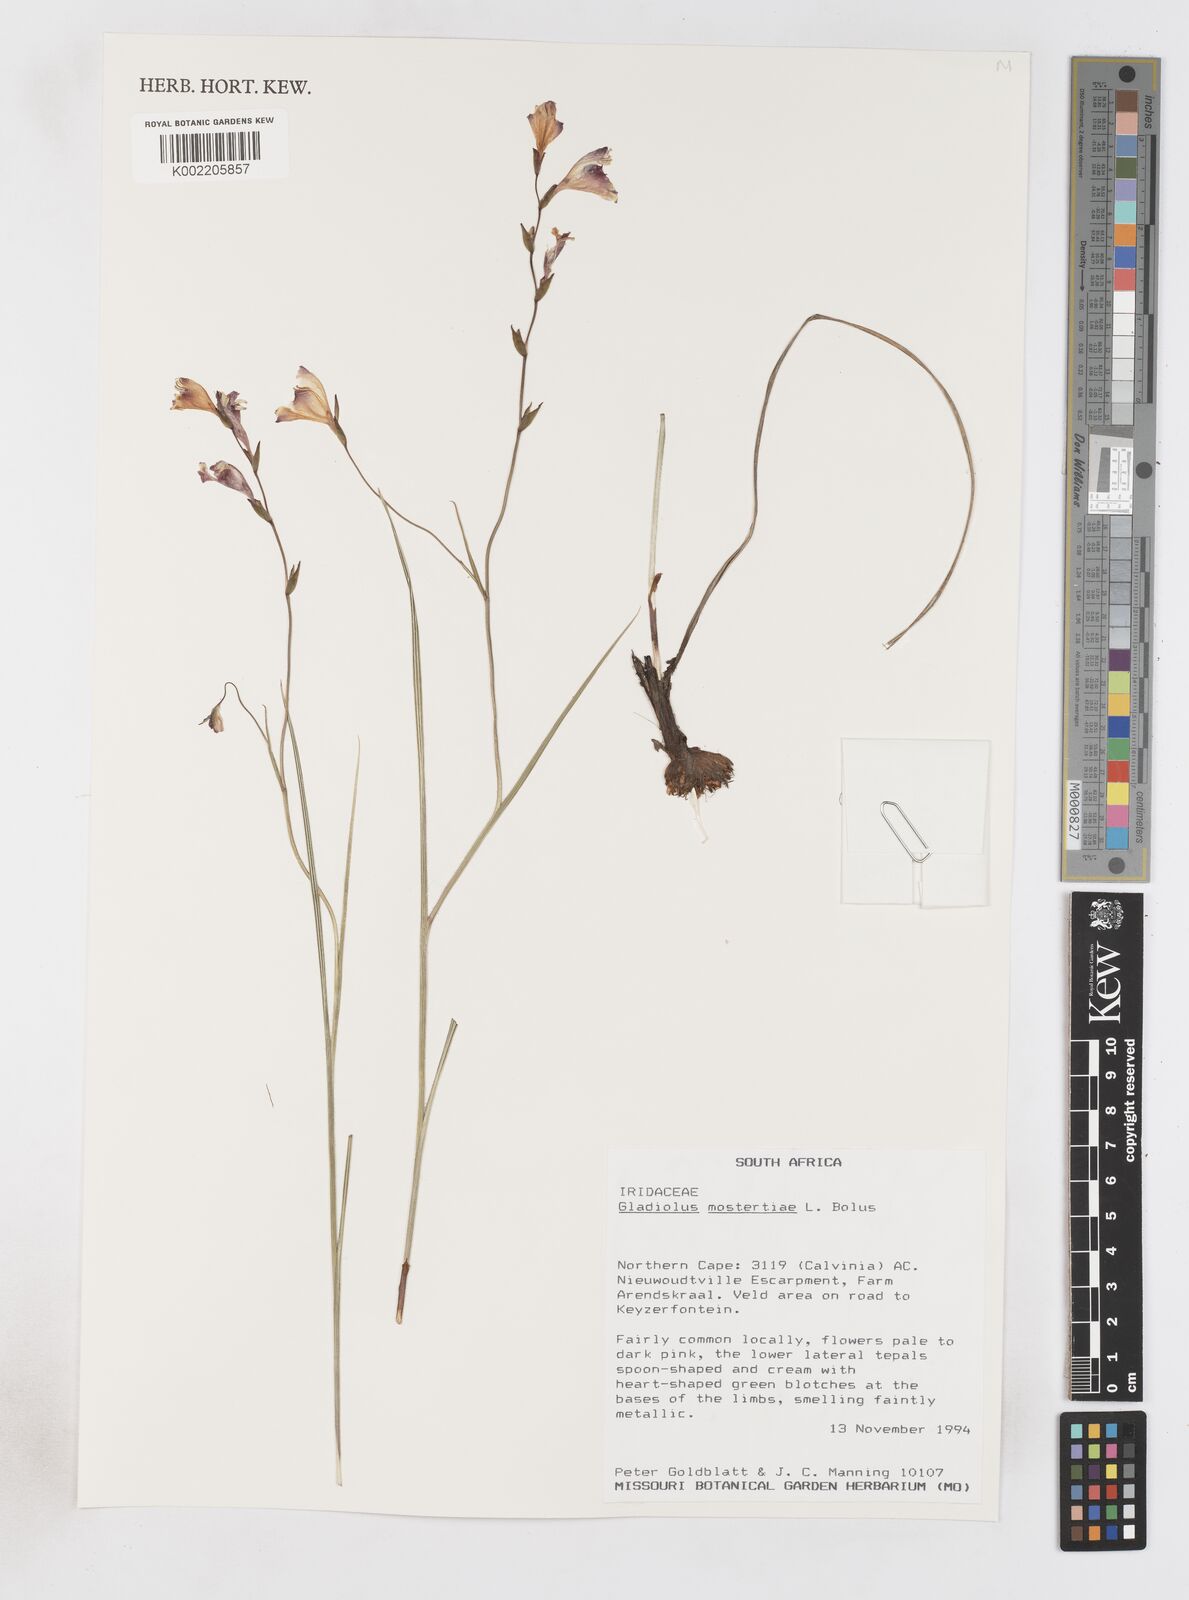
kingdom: Plantae
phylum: Tracheophyta
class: Liliopsida
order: Asparagales
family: Iridaceae
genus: Gladiolus
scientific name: Gladiolus mostertiae
